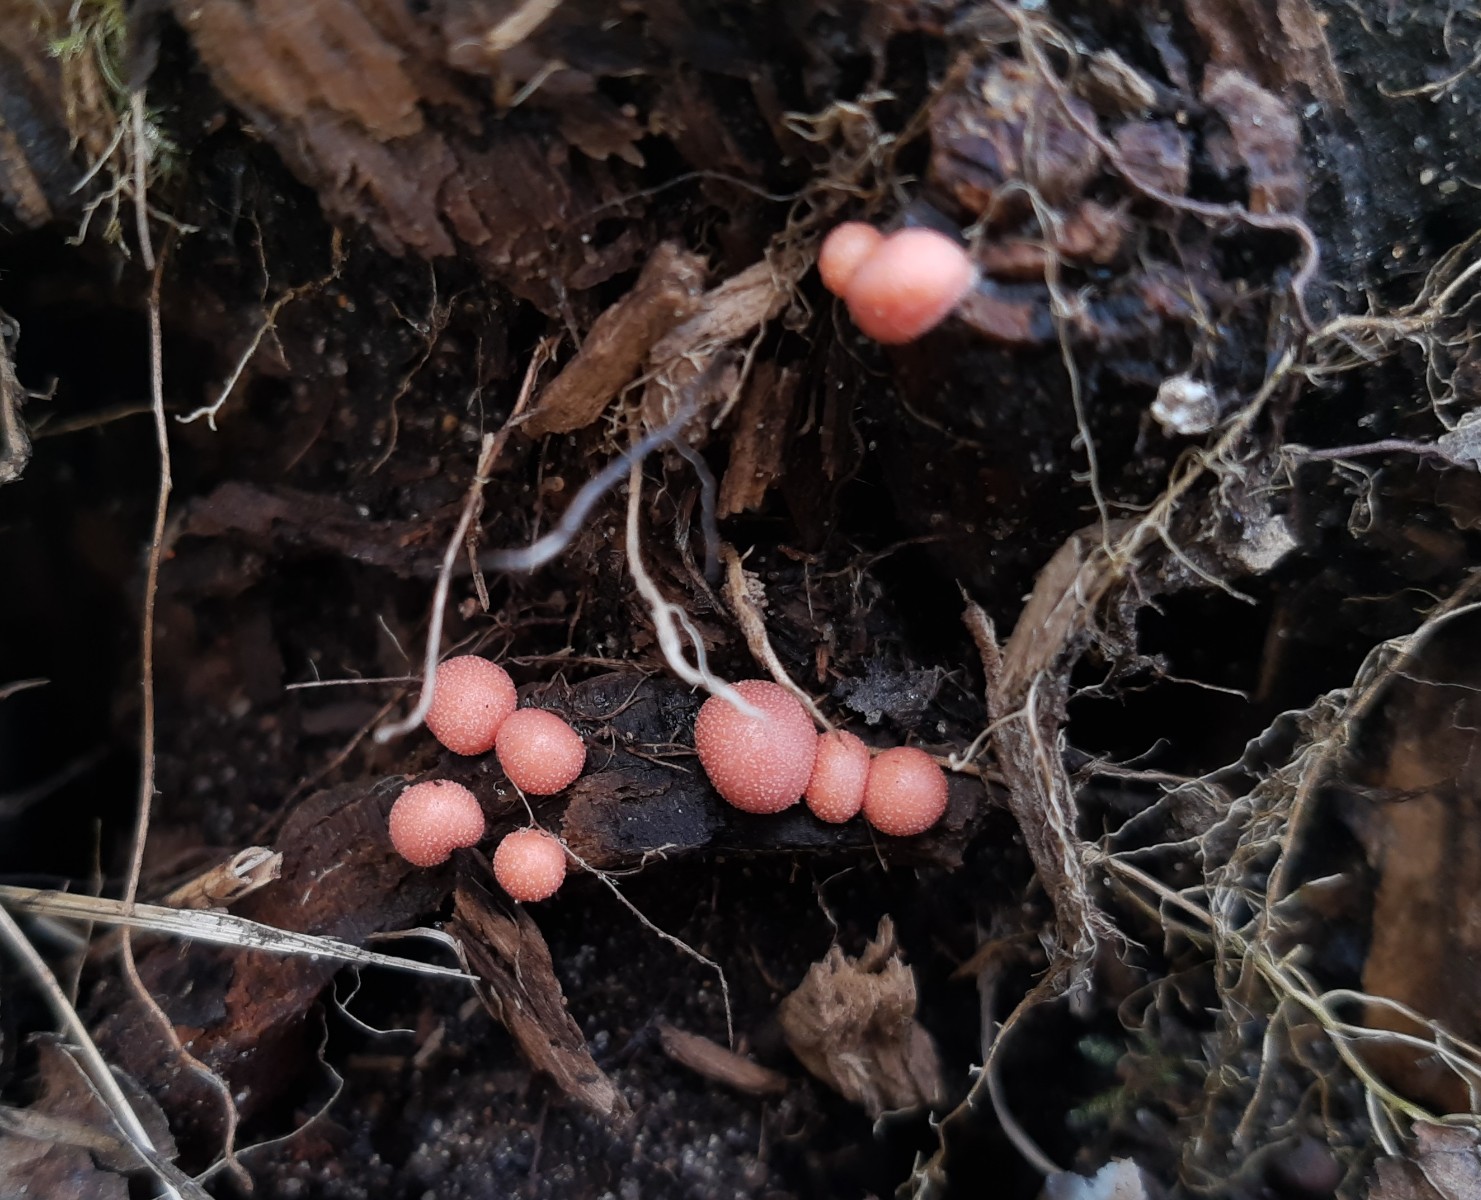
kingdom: Protozoa
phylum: Mycetozoa
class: Myxomycetes
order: Cribrariales
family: Tubiferaceae
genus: Lycogala
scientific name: Lycogala epidendrum
